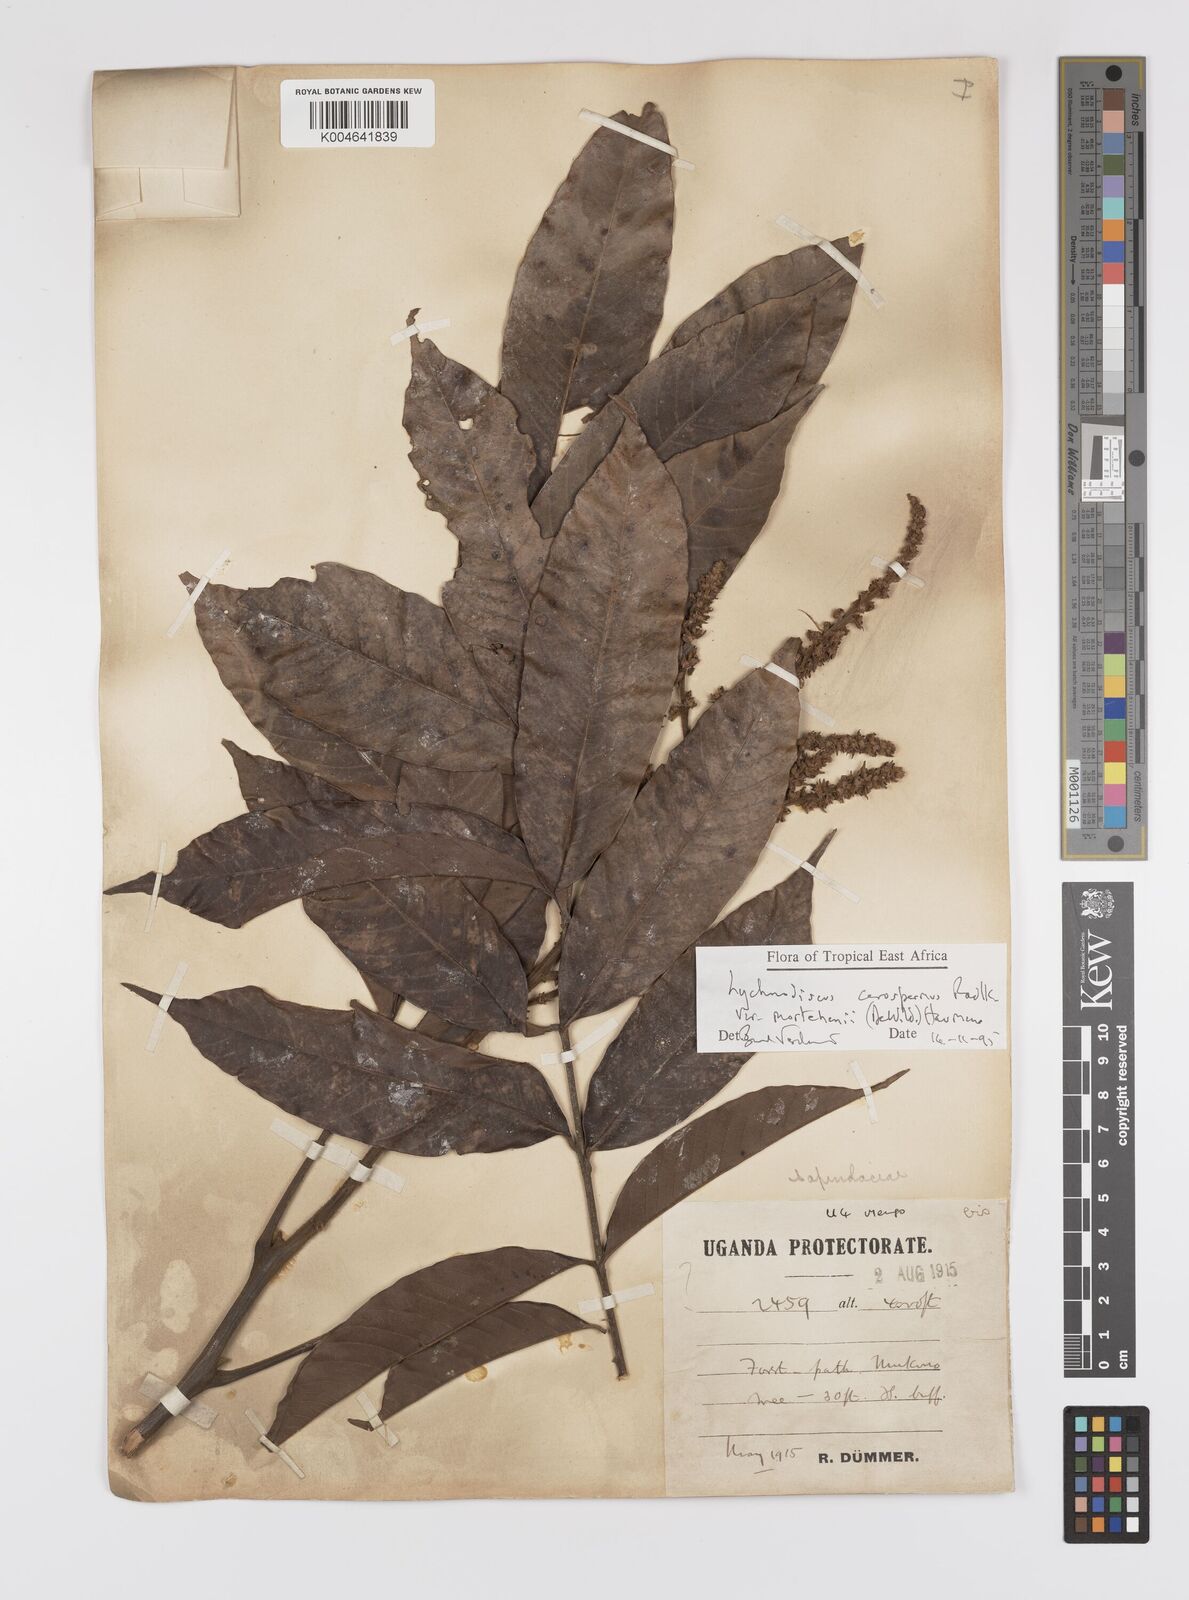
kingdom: Plantae
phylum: Tracheophyta
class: Magnoliopsida
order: Sapindales
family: Sapindaceae
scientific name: Sapindaceae
